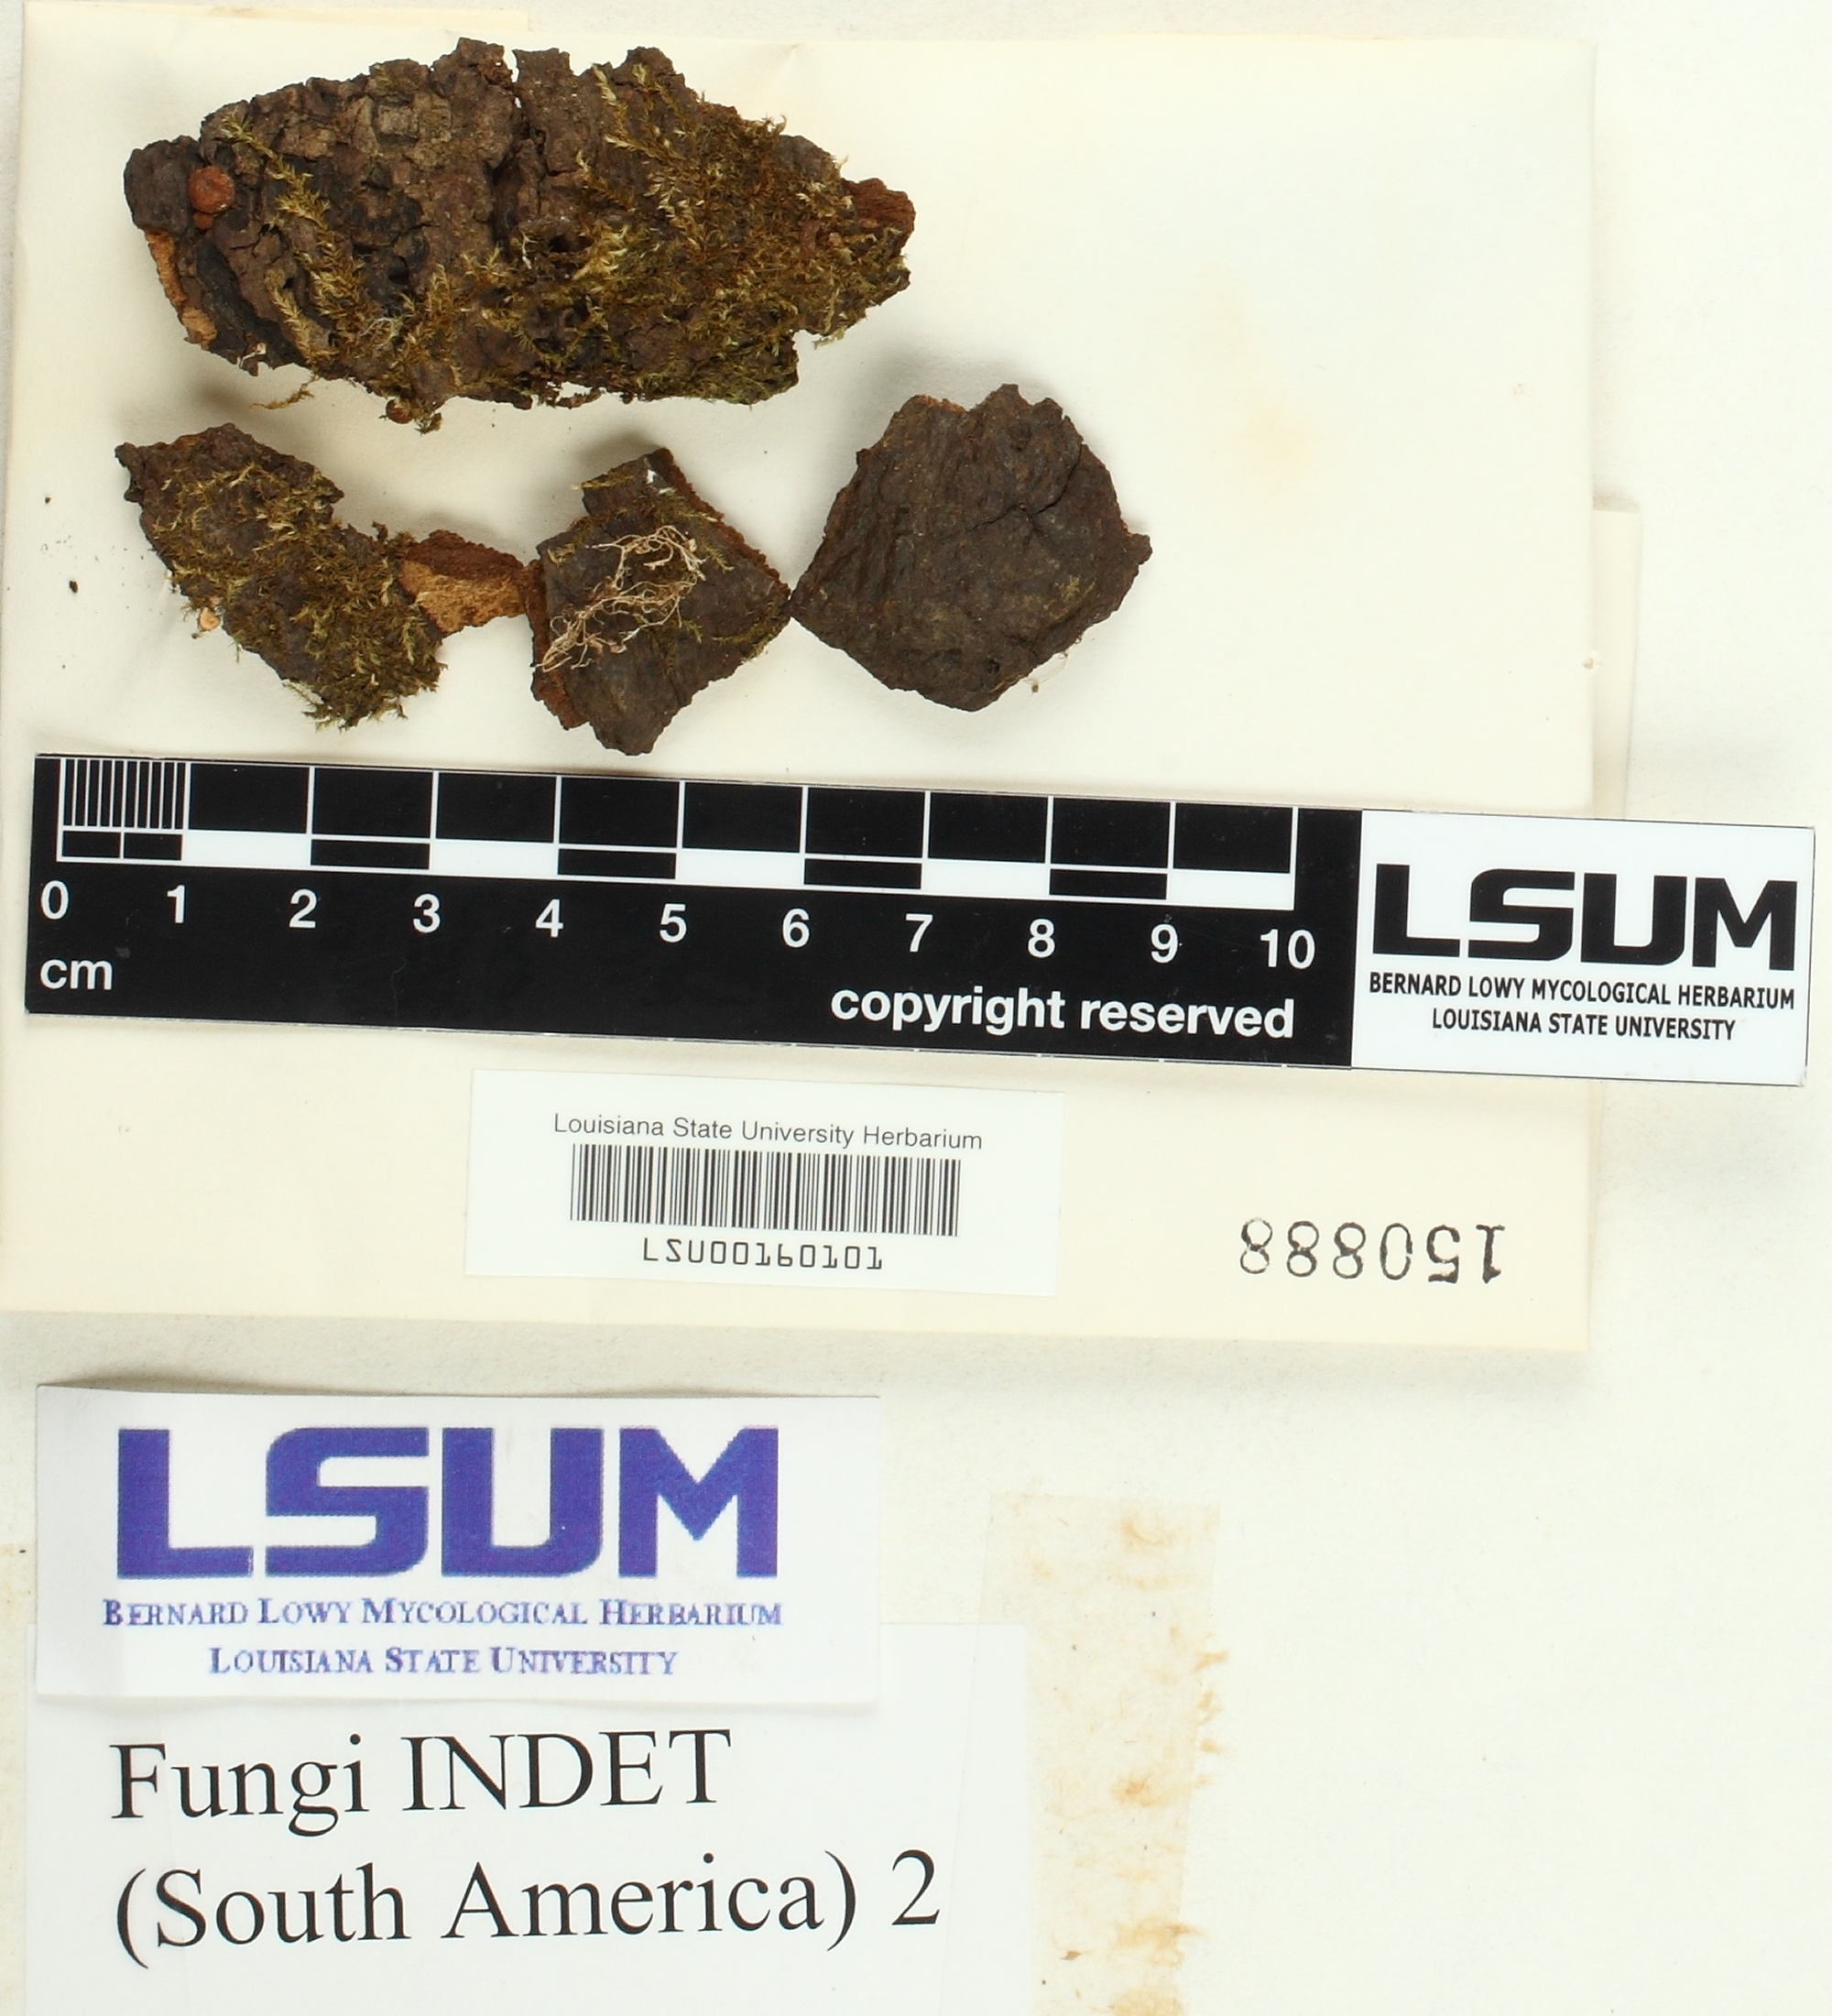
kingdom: Fungi
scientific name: Fungi
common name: Fungi
